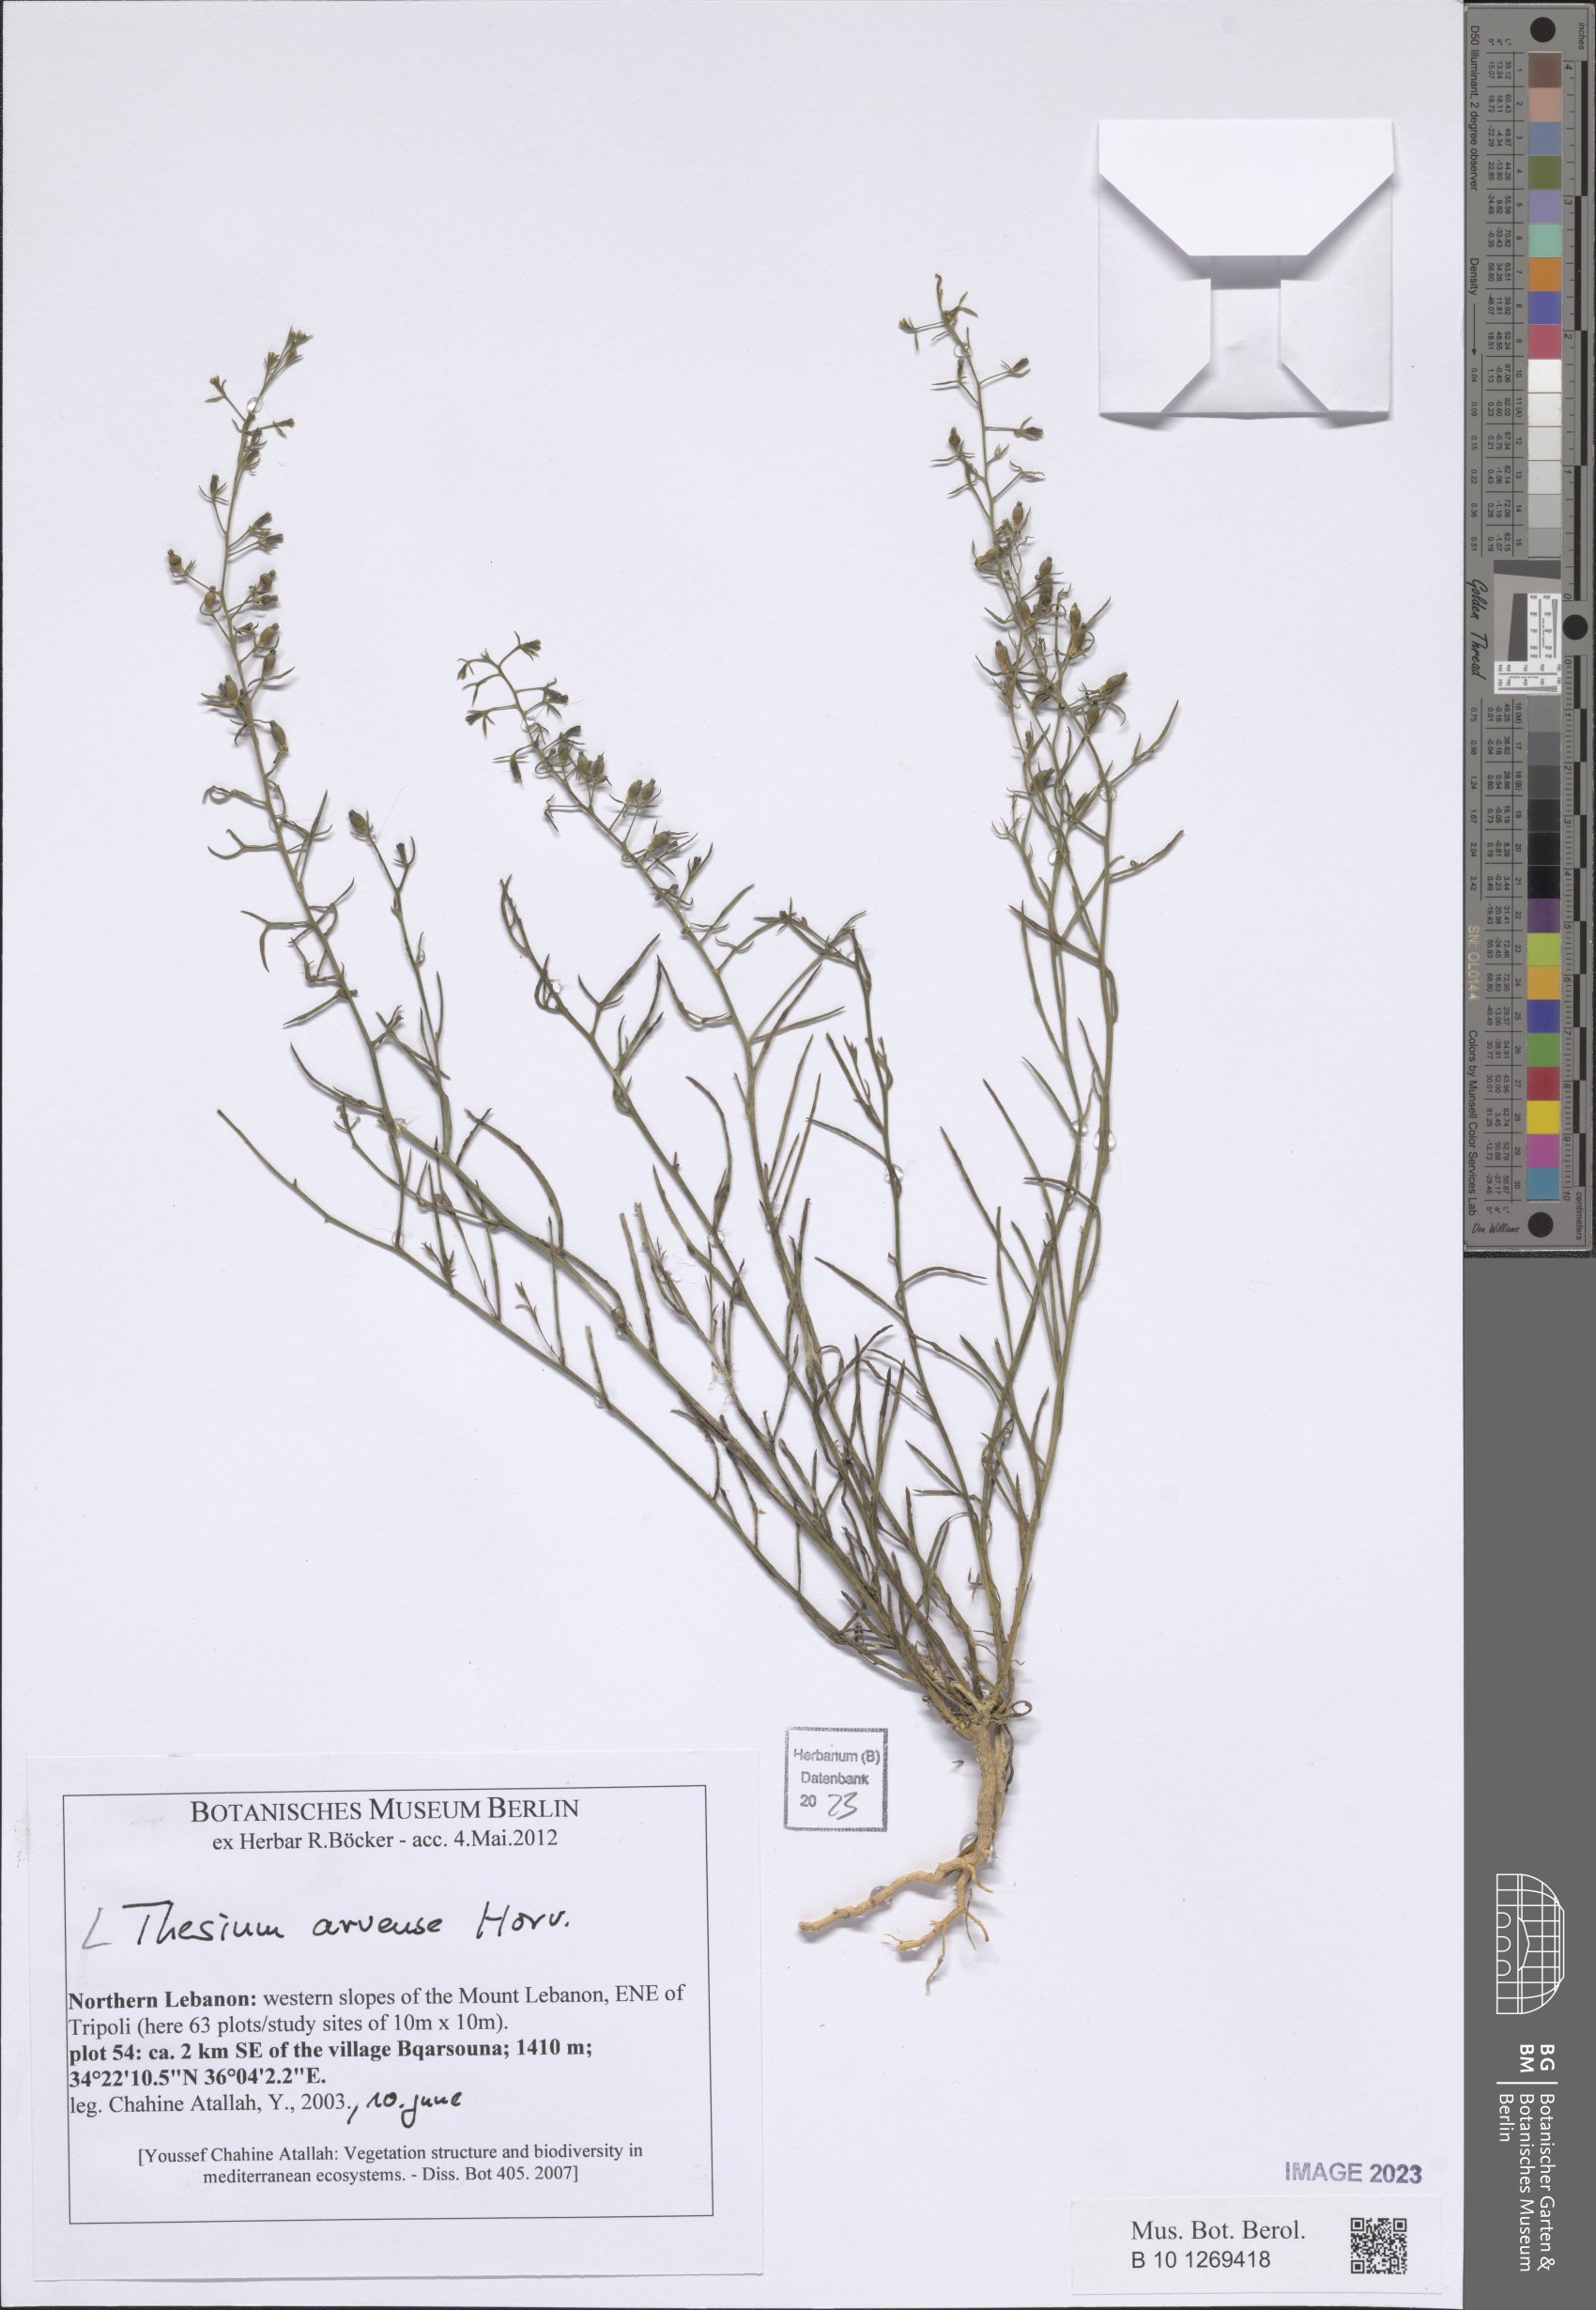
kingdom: Plantae
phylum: Tracheophyta
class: Magnoliopsida
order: Santalales
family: Thesiaceae
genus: Thesium
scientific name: Thesium
